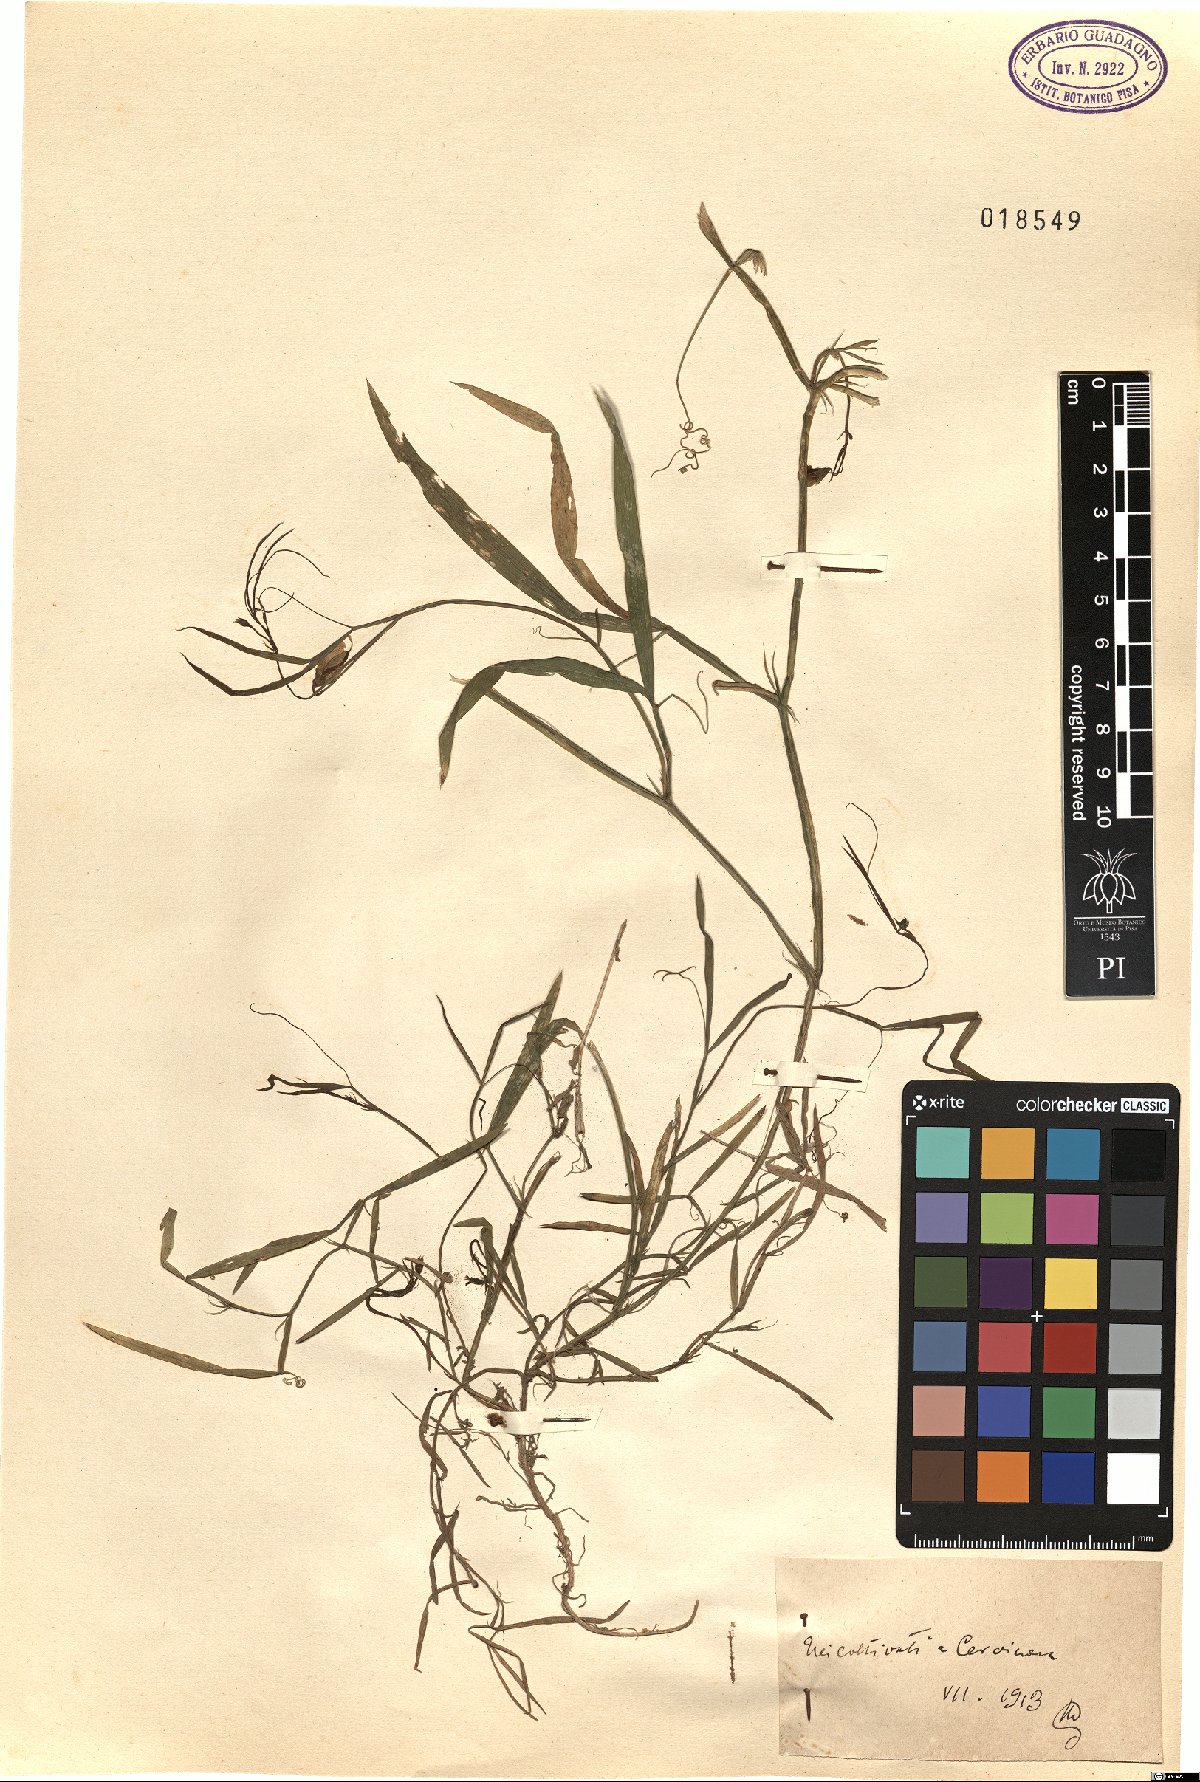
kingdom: Plantae
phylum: Tracheophyta
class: Magnoliopsida
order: Fabales
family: Fabaceae
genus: Lathyrus
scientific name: Lathyrus
